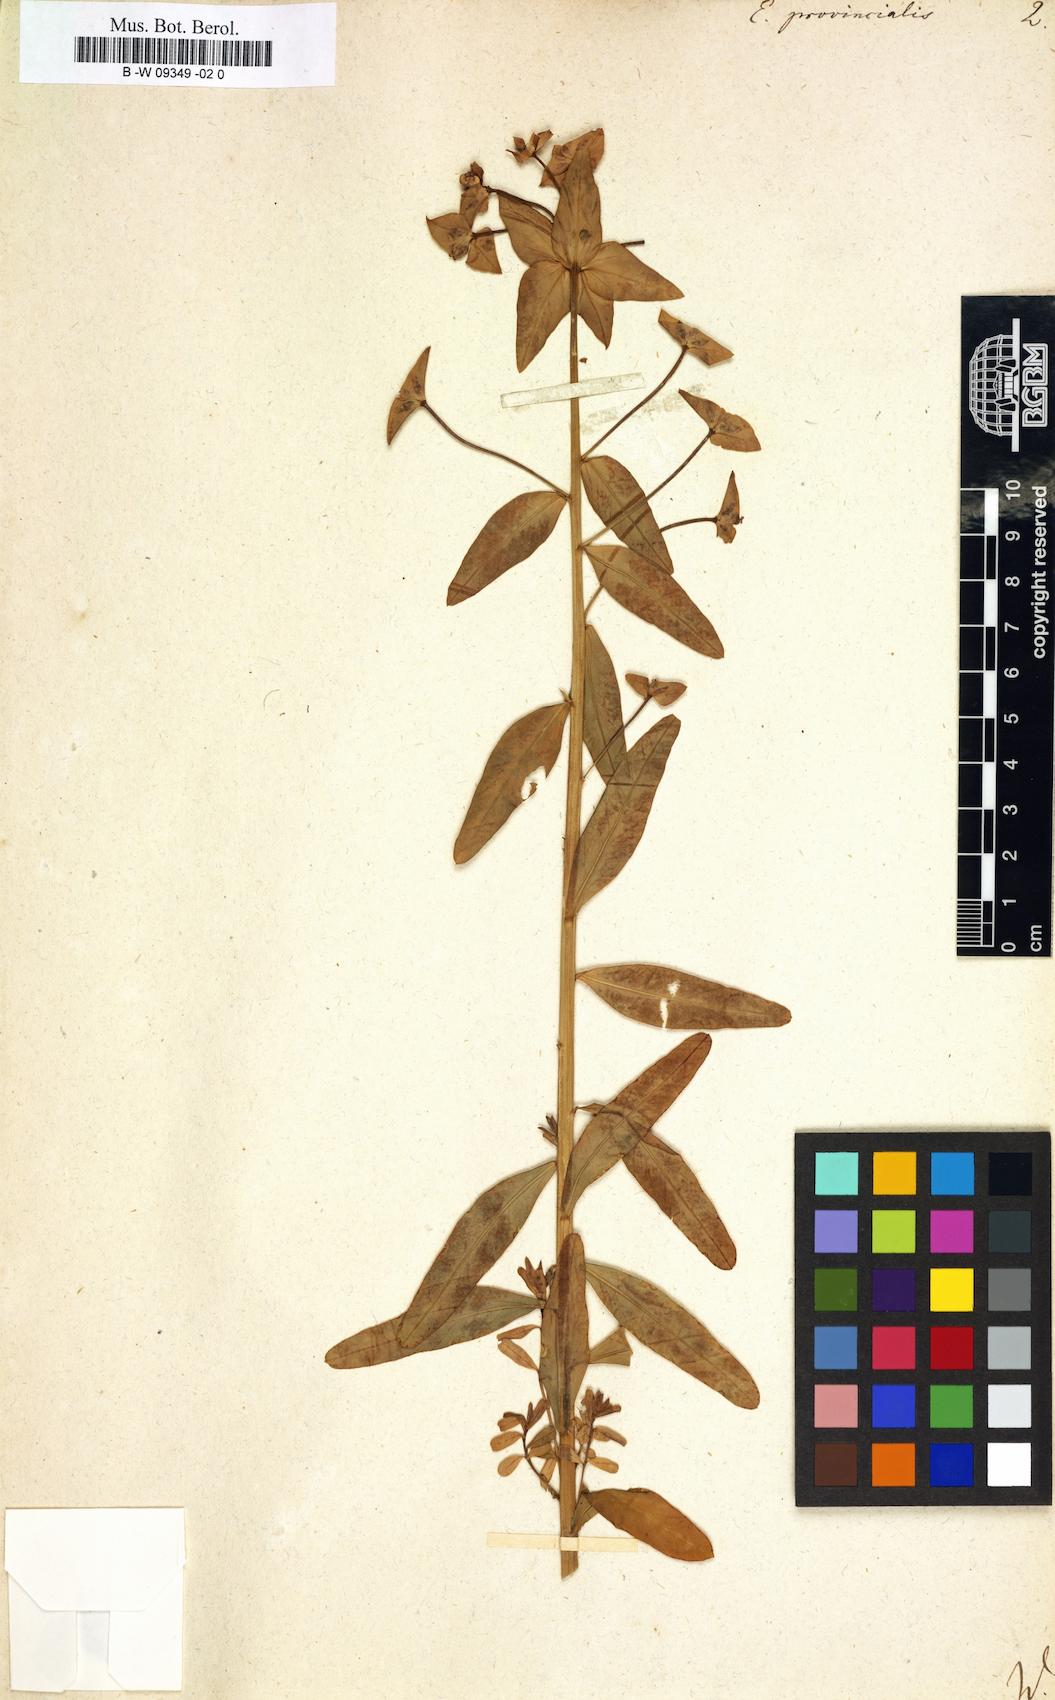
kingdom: Plantae
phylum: Tracheophyta
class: Magnoliopsida
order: Malpighiales
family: Euphorbiaceae
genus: Euphorbia
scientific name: Euphorbia terracina
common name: Geraldton carnation weed
